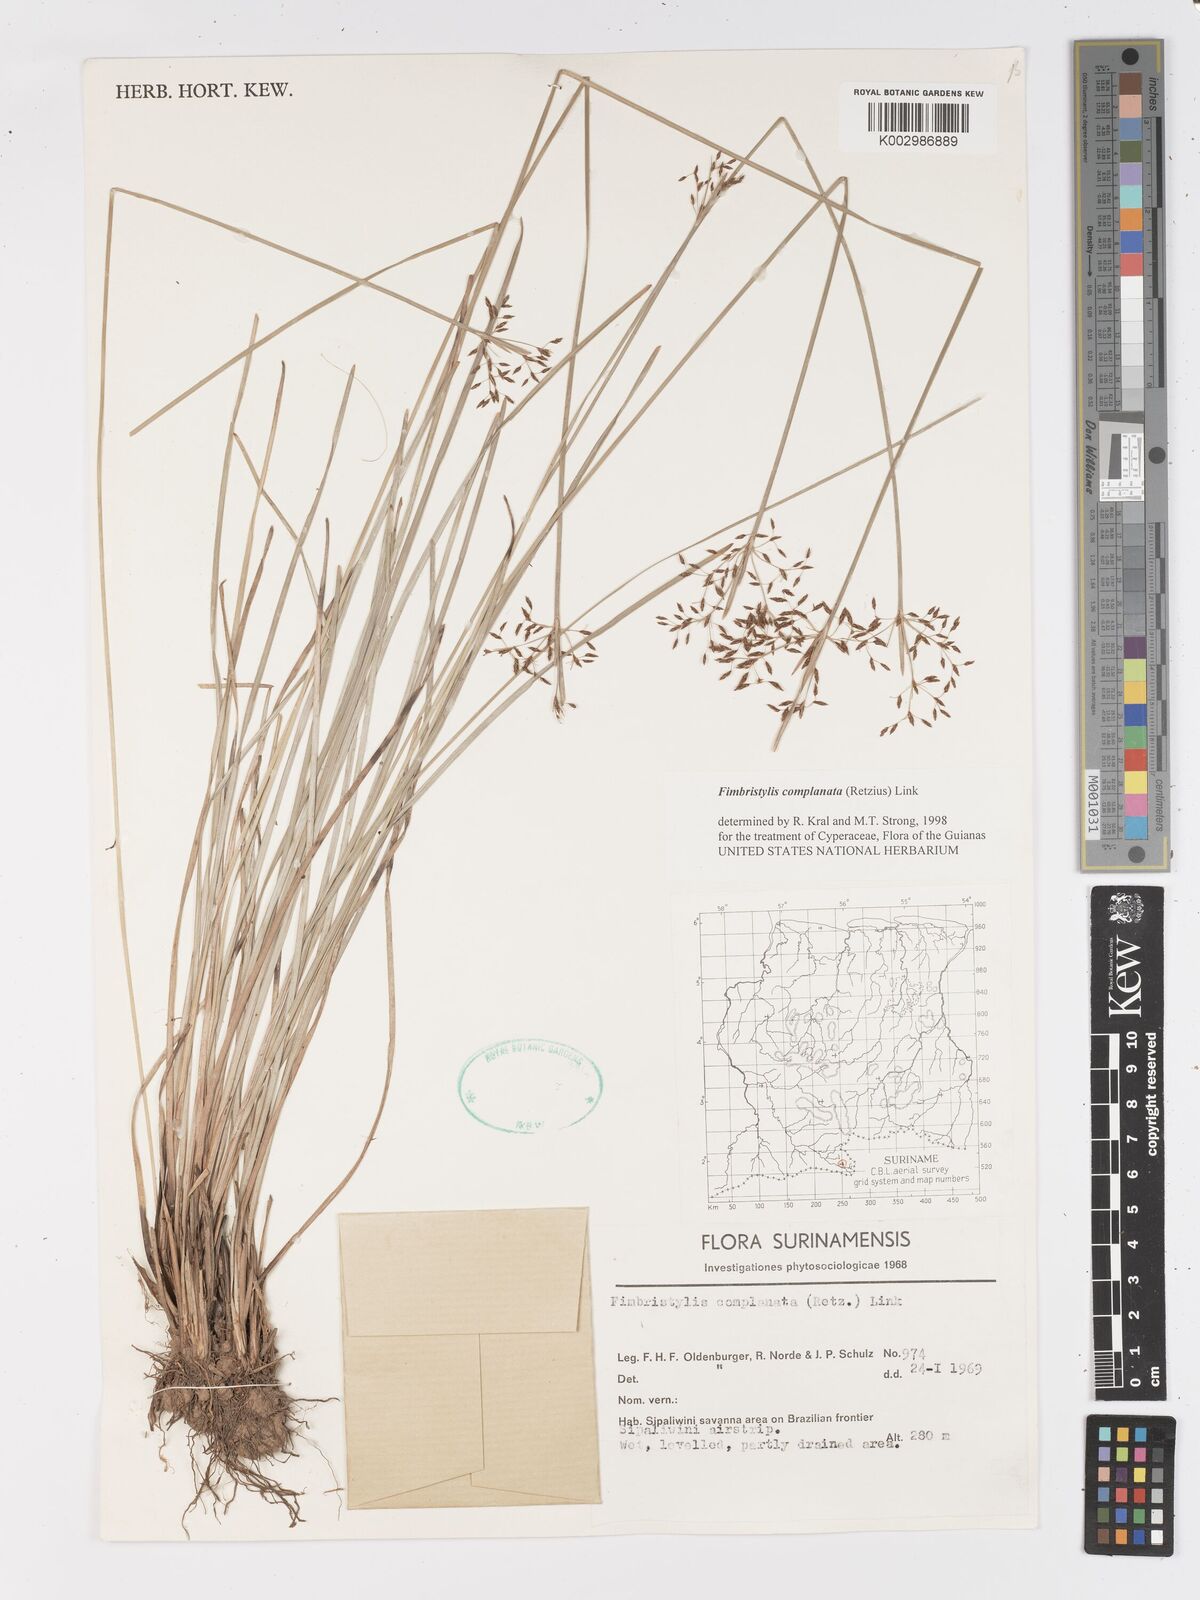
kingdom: Plantae
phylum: Tracheophyta
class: Liliopsida
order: Poales
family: Cyperaceae
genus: Fimbristylis
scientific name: Fimbristylis complanata
